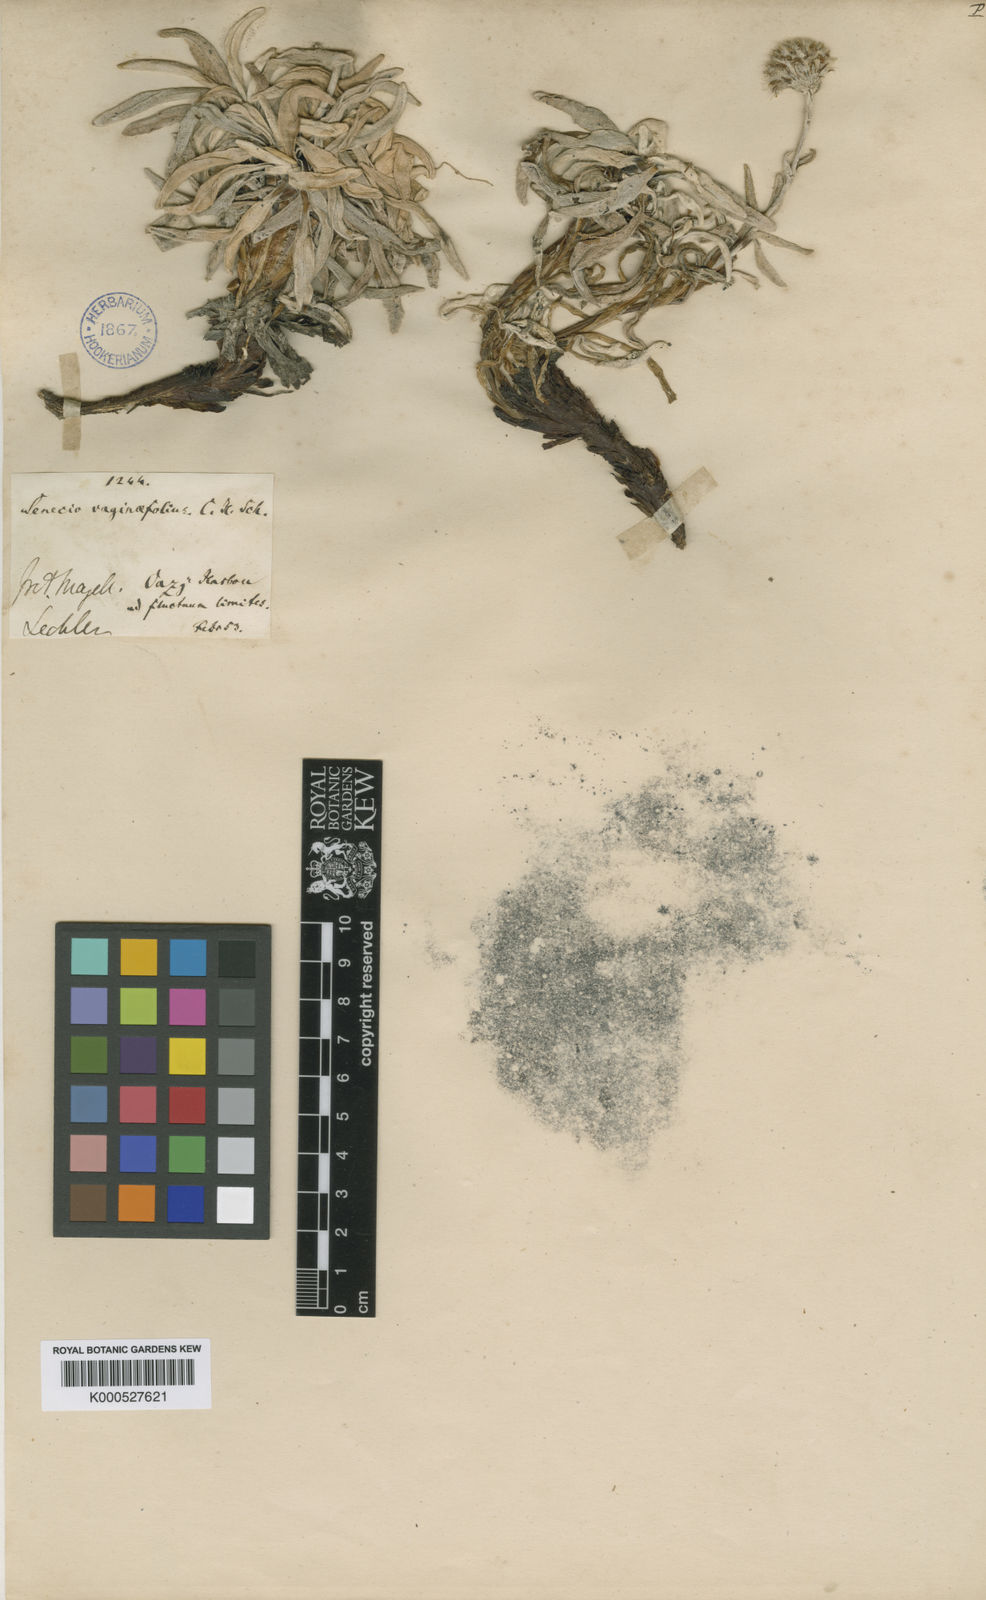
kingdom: Plantae
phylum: Tracheophyta
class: Magnoliopsida
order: Asterales
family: Asteraceae
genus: Senecio
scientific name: Senecio tunicatus
